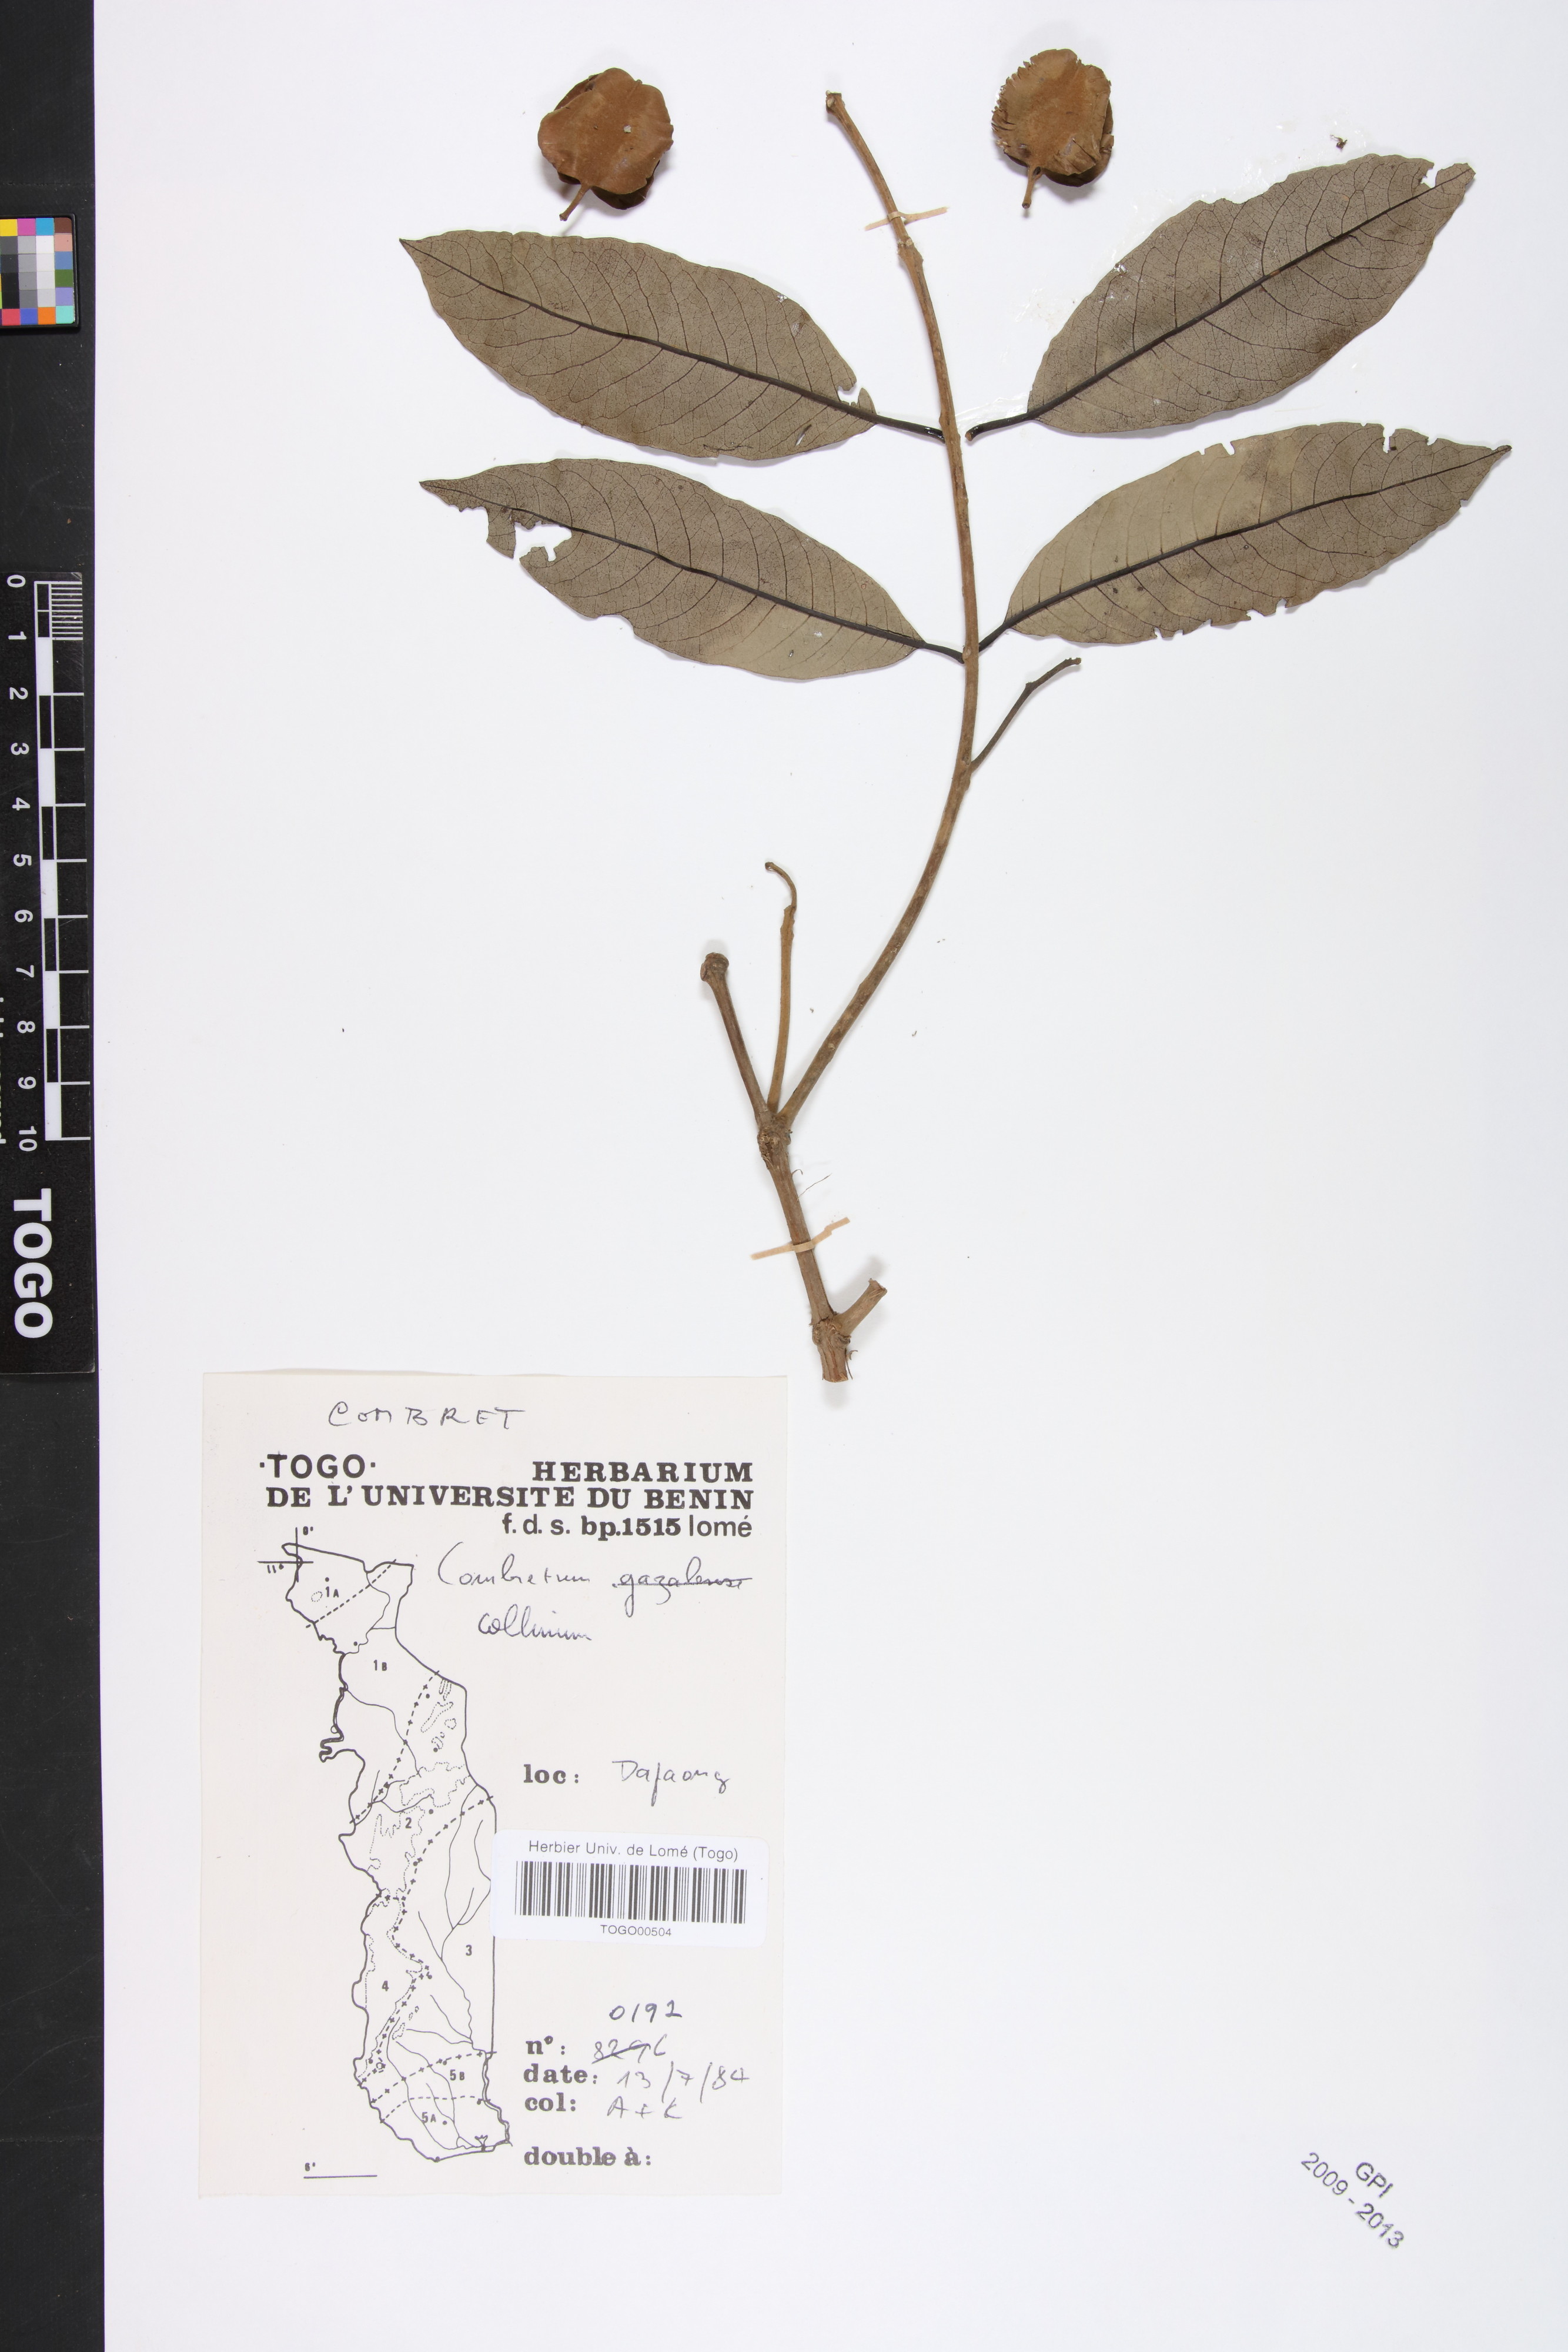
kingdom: Plantae
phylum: Tracheophyta
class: Magnoliopsida
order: Myrtales
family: Combretaceae
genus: Combretum
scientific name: Combretum collinum
